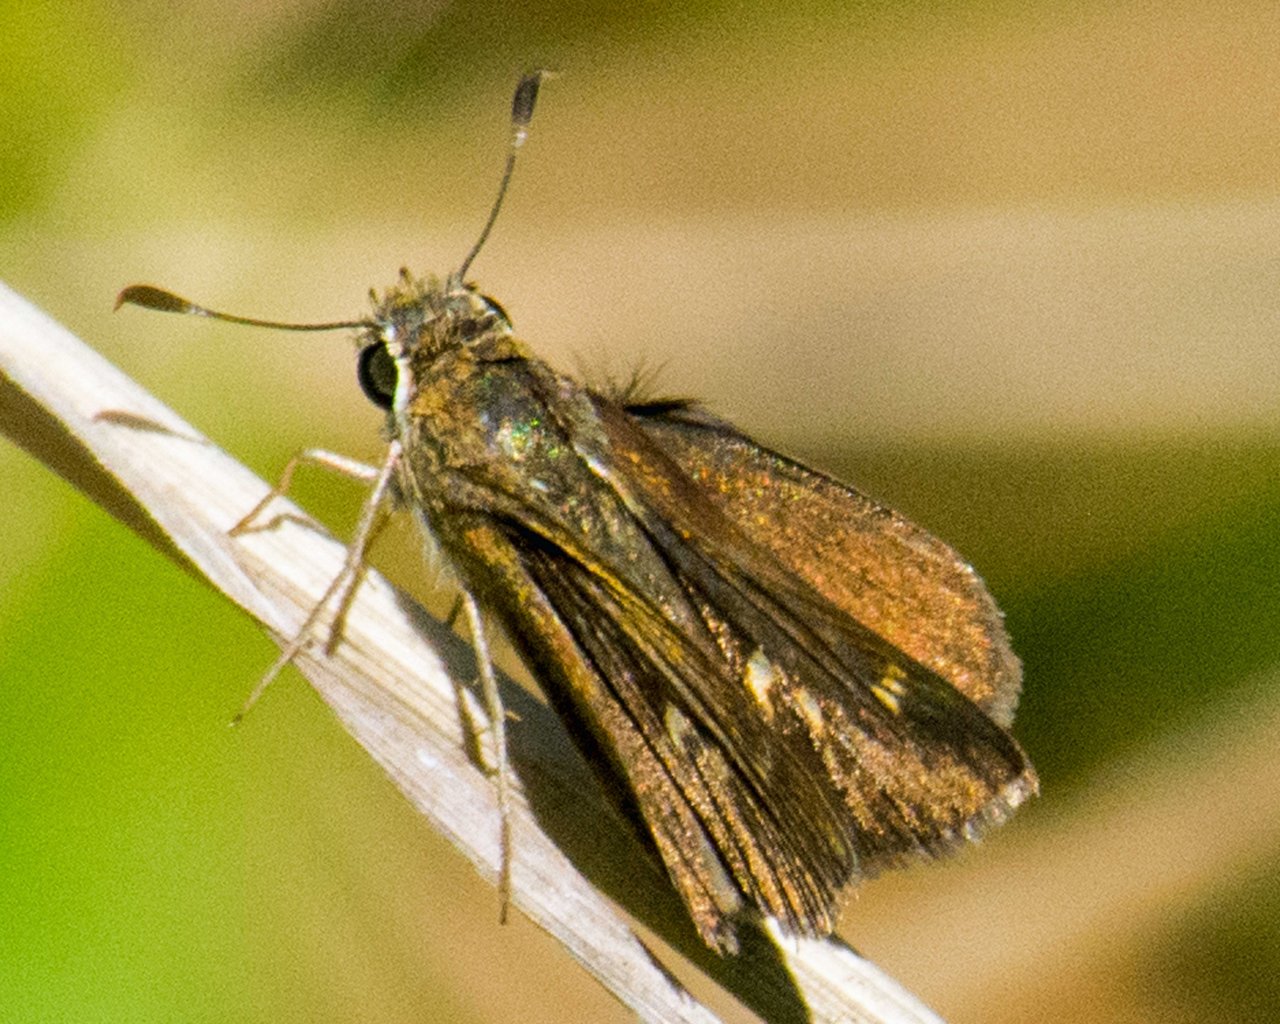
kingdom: Animalia
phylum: Arthropoda
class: Insecta
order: Lepidoptera
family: Hesperiidae
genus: Vernia
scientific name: Vernia verna
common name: Little Glassywing
